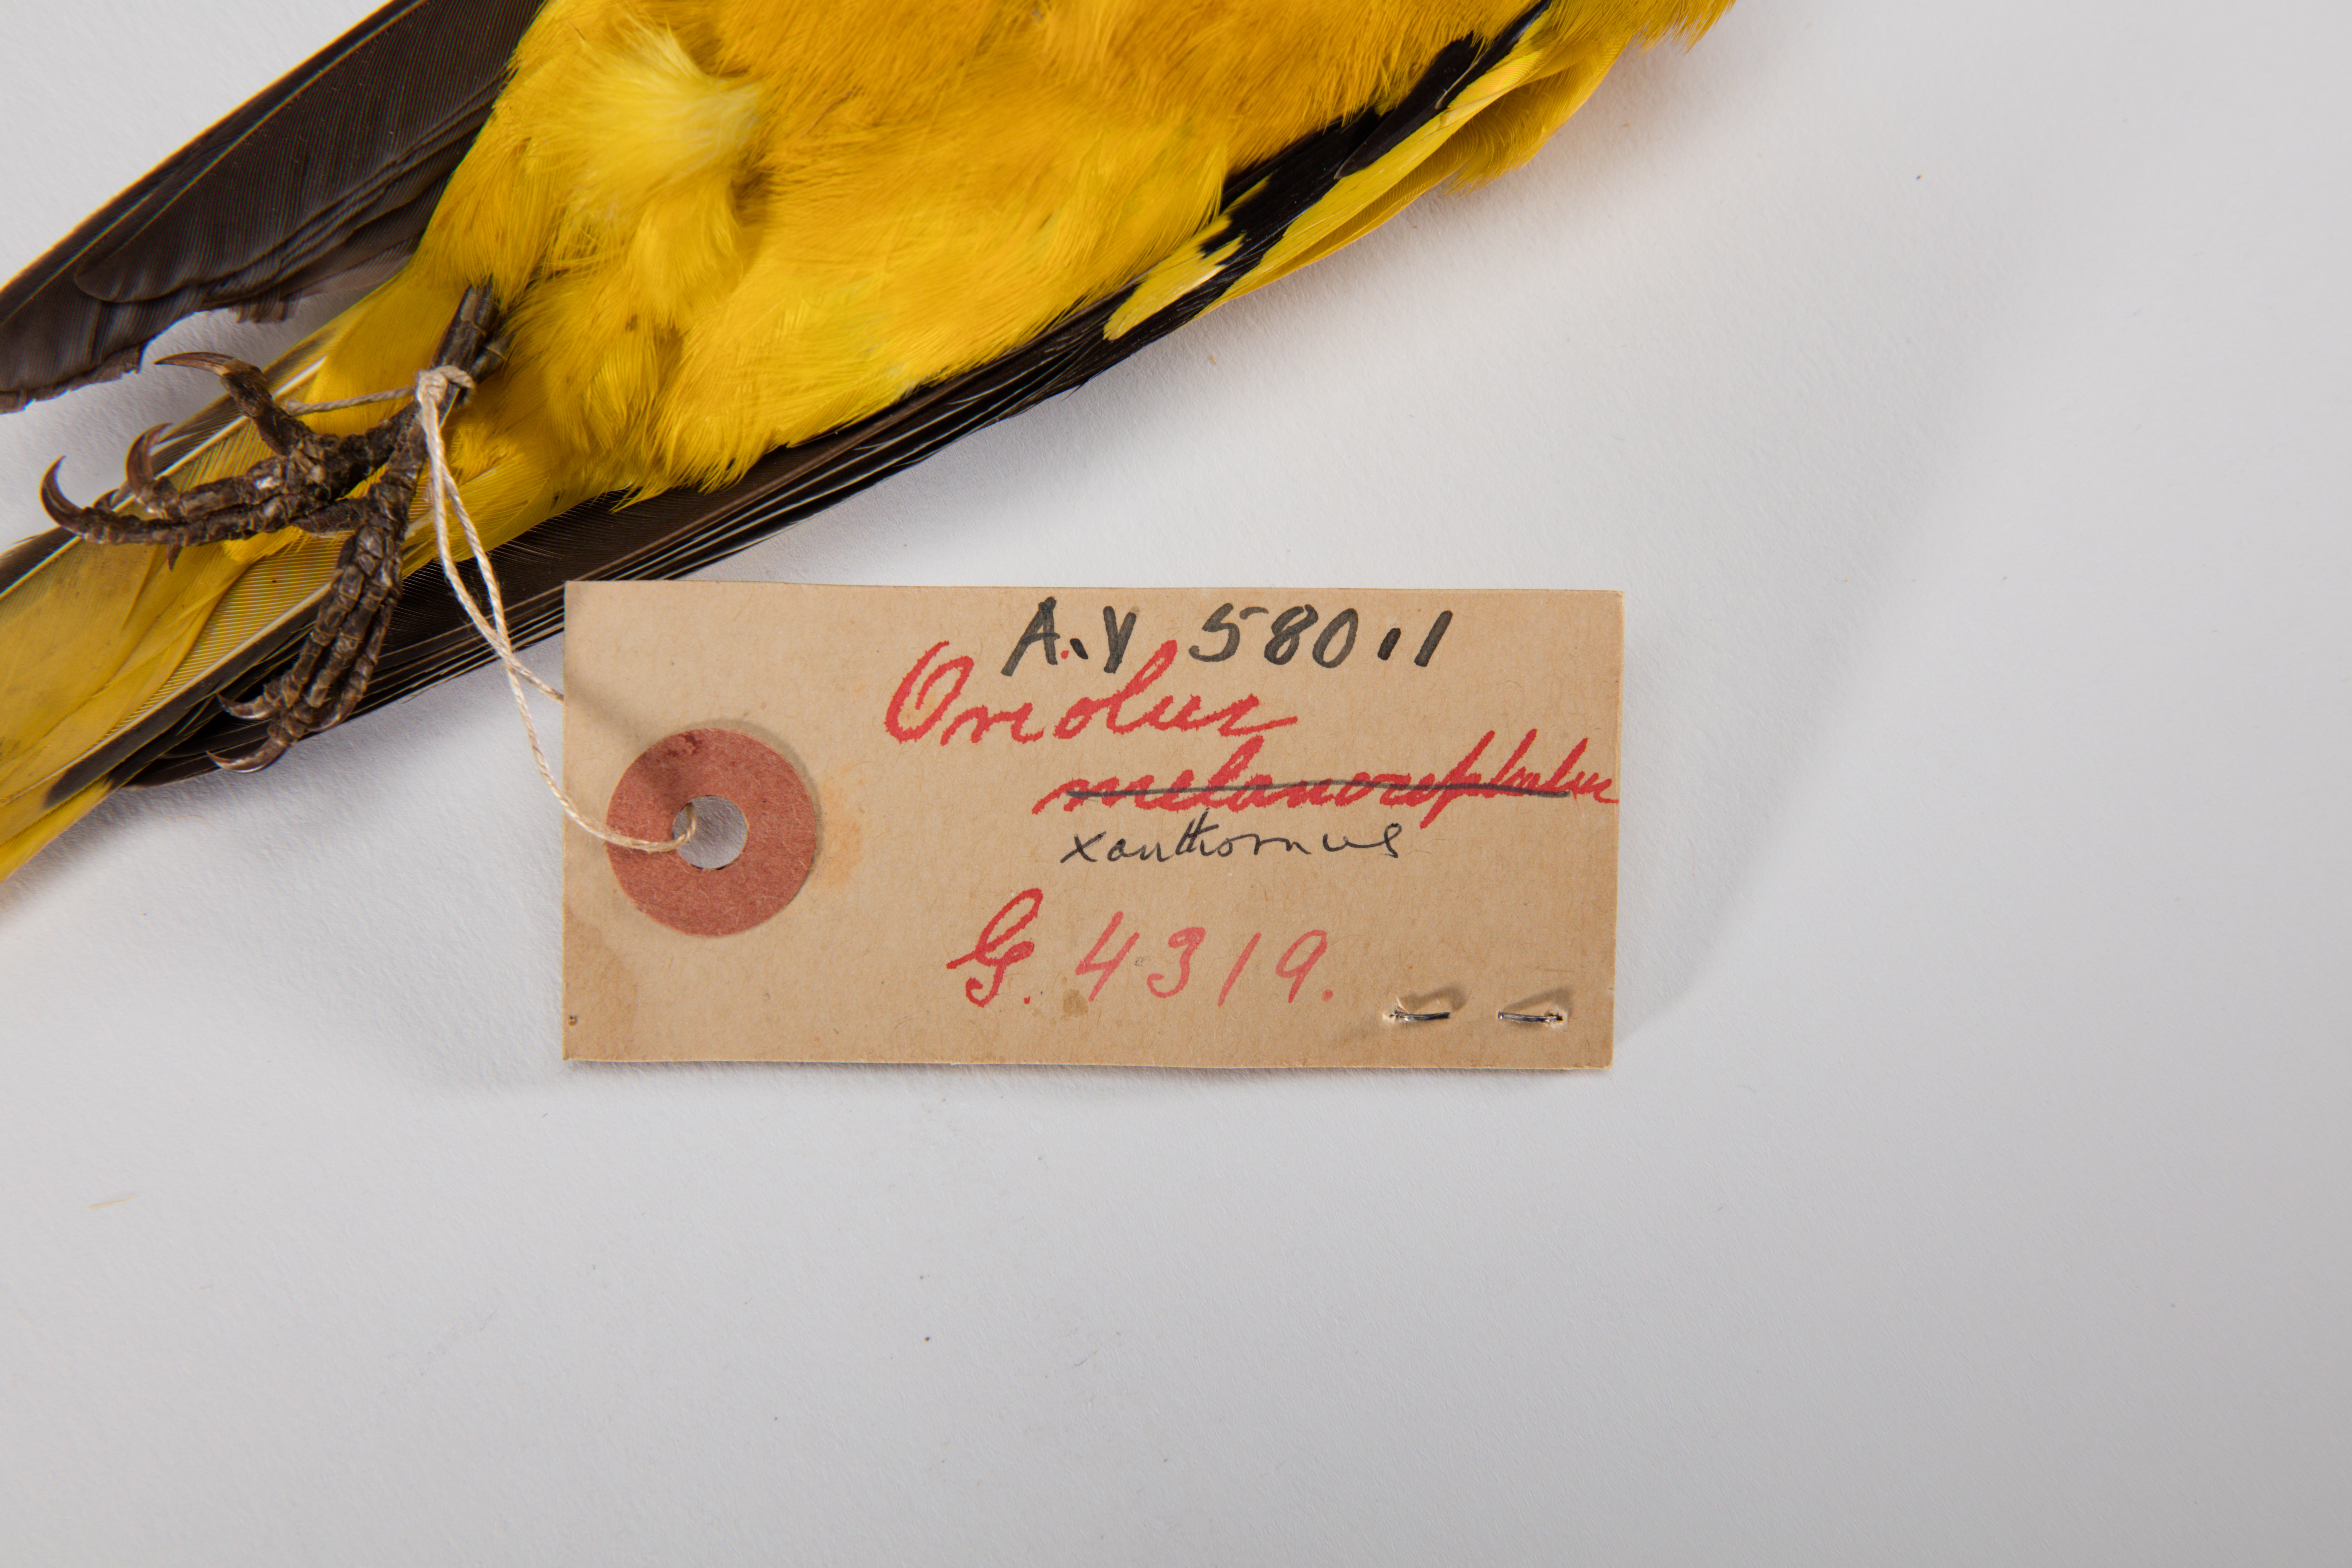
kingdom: Animalia
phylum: Chordata
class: Aves
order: Passeriformes
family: Oriolidae
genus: Oriolus
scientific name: Oriolus xanthornus
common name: Black-hooded oriole
